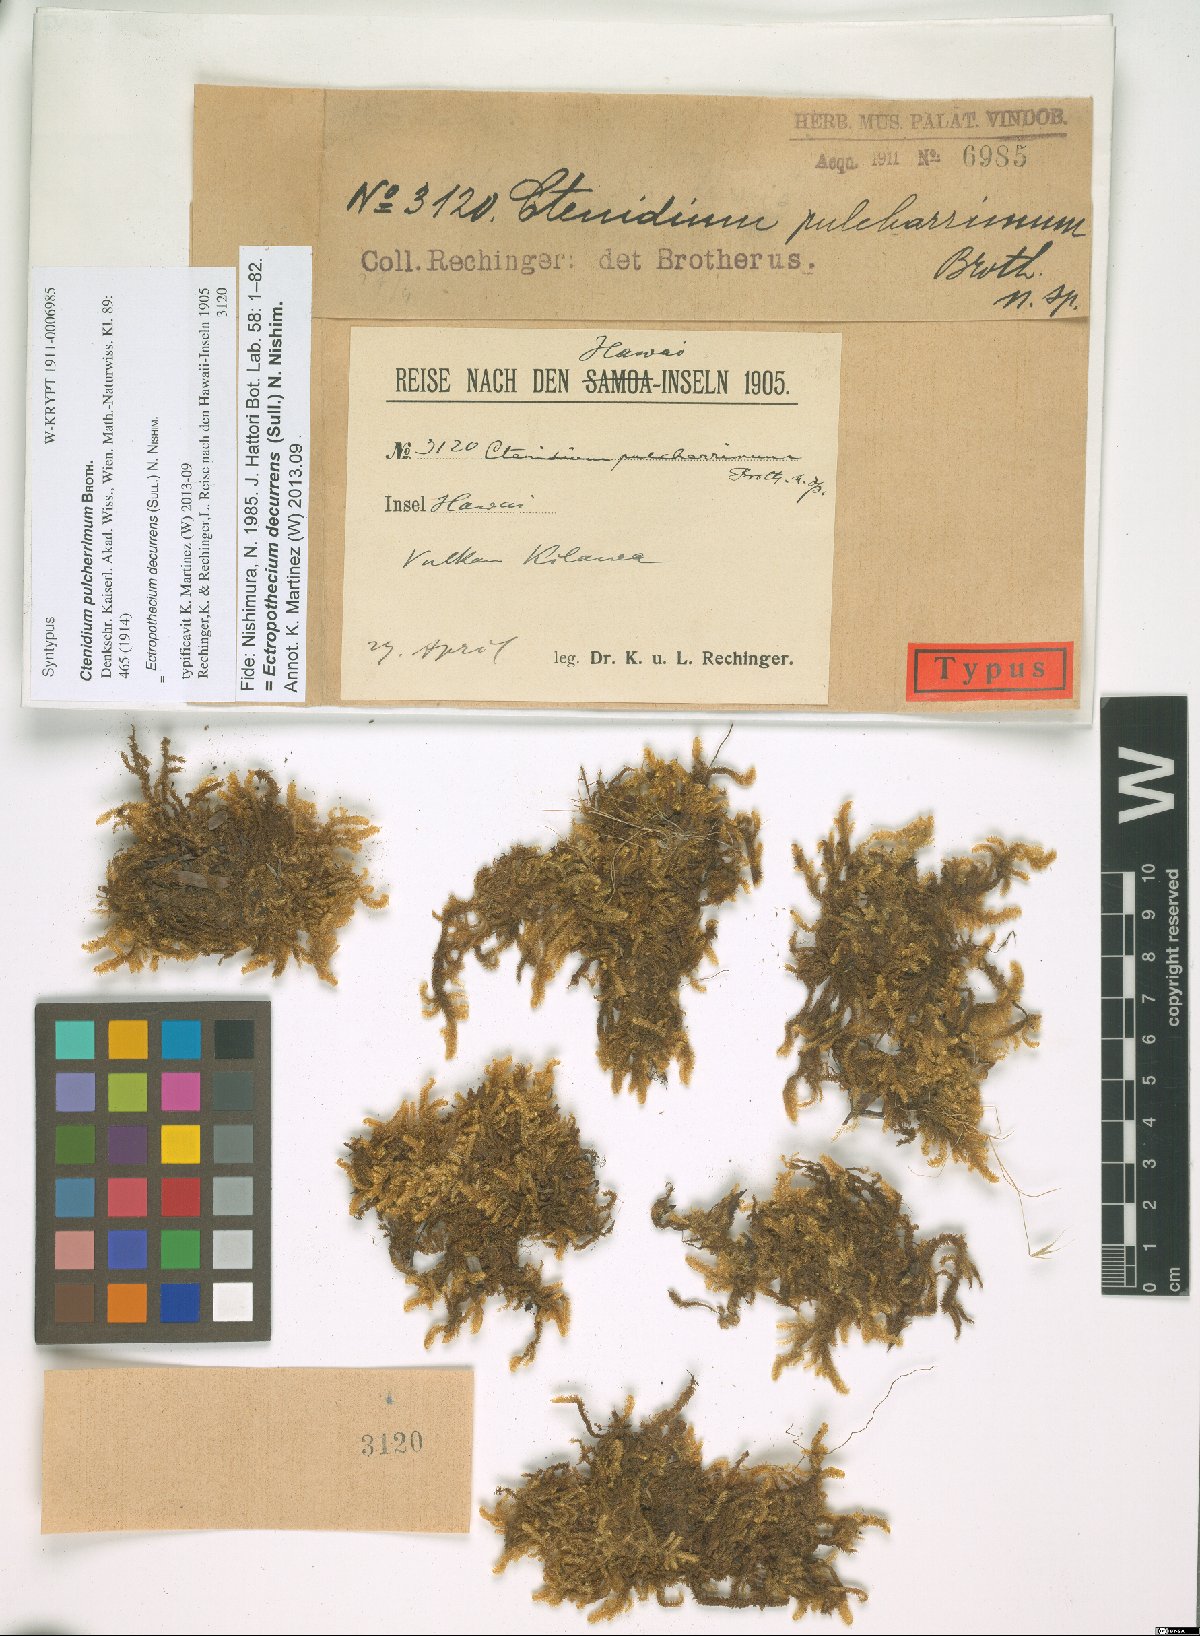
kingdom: Plantae
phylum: Bryophyta
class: Bryopsida
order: Hypnales
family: Hypnaceae
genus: Ectropothecium
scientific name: Ectropothecium decurrens
